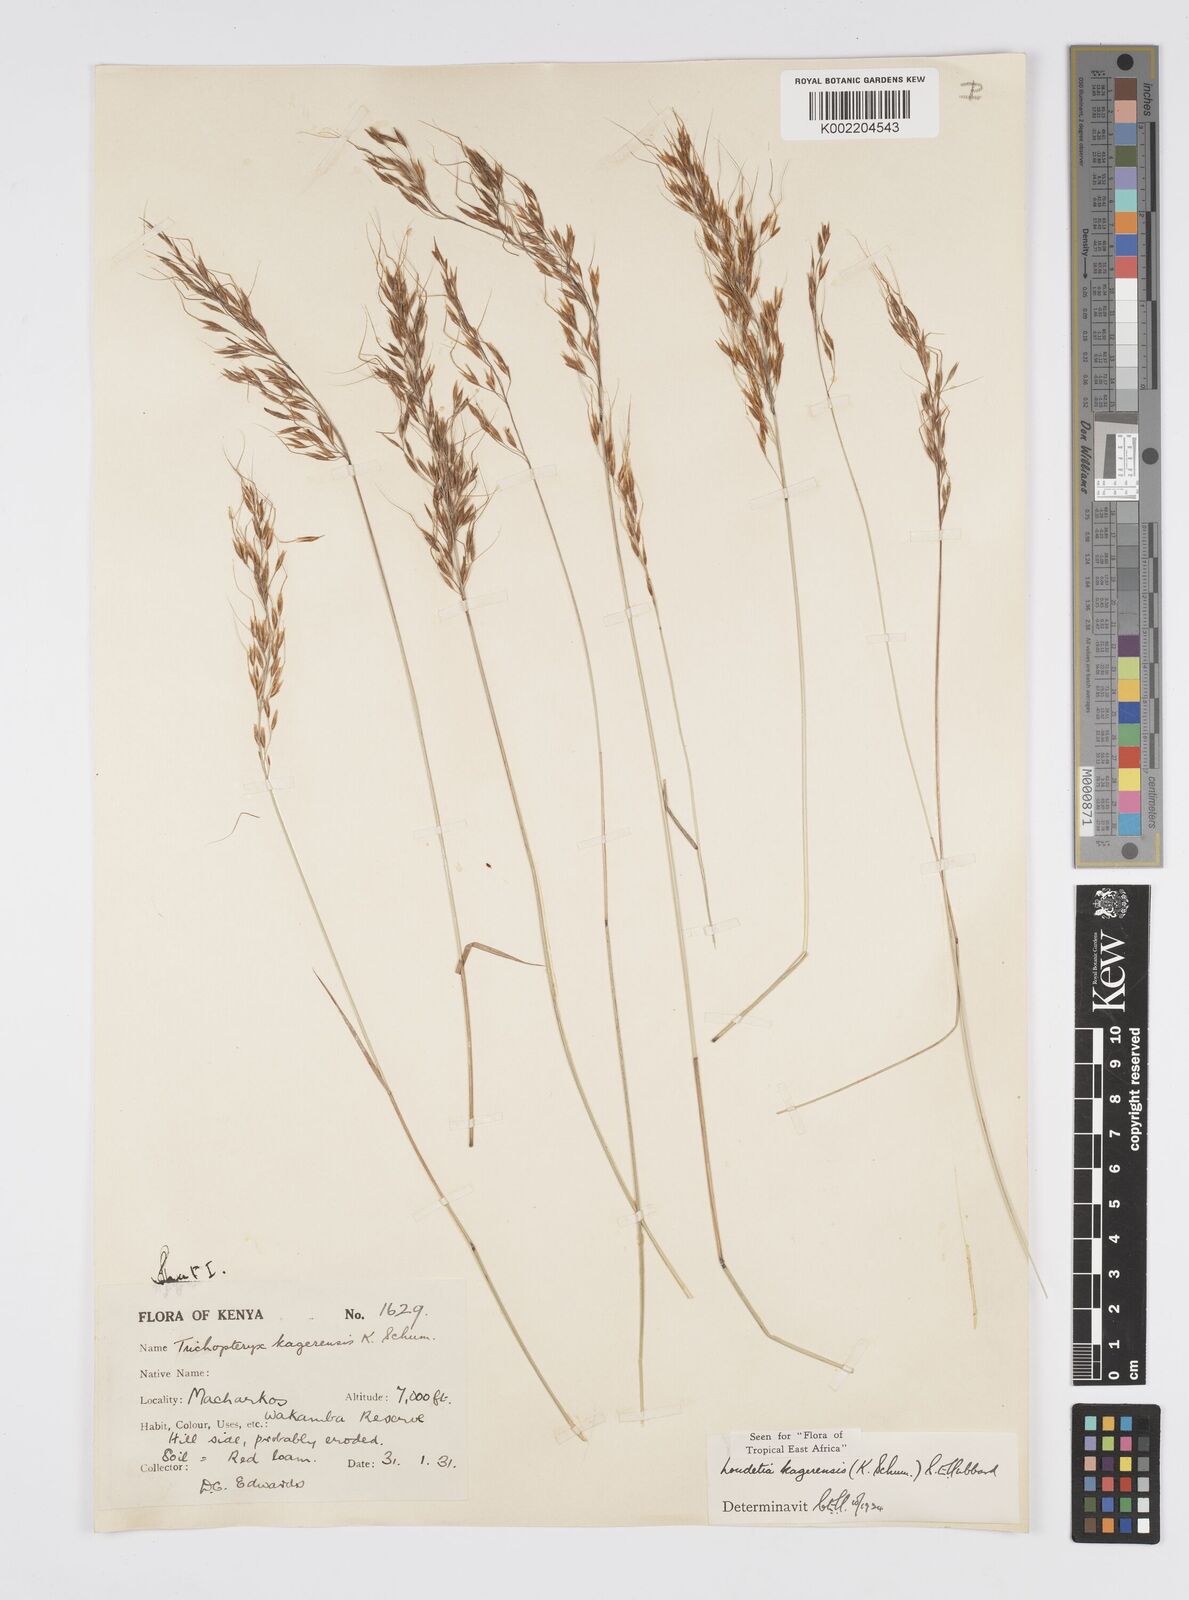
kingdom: Plantae
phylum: Tracheophyta
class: Liliopsida
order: Poales
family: Poaceae
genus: Loudetia
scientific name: Loudetia kagerensis
